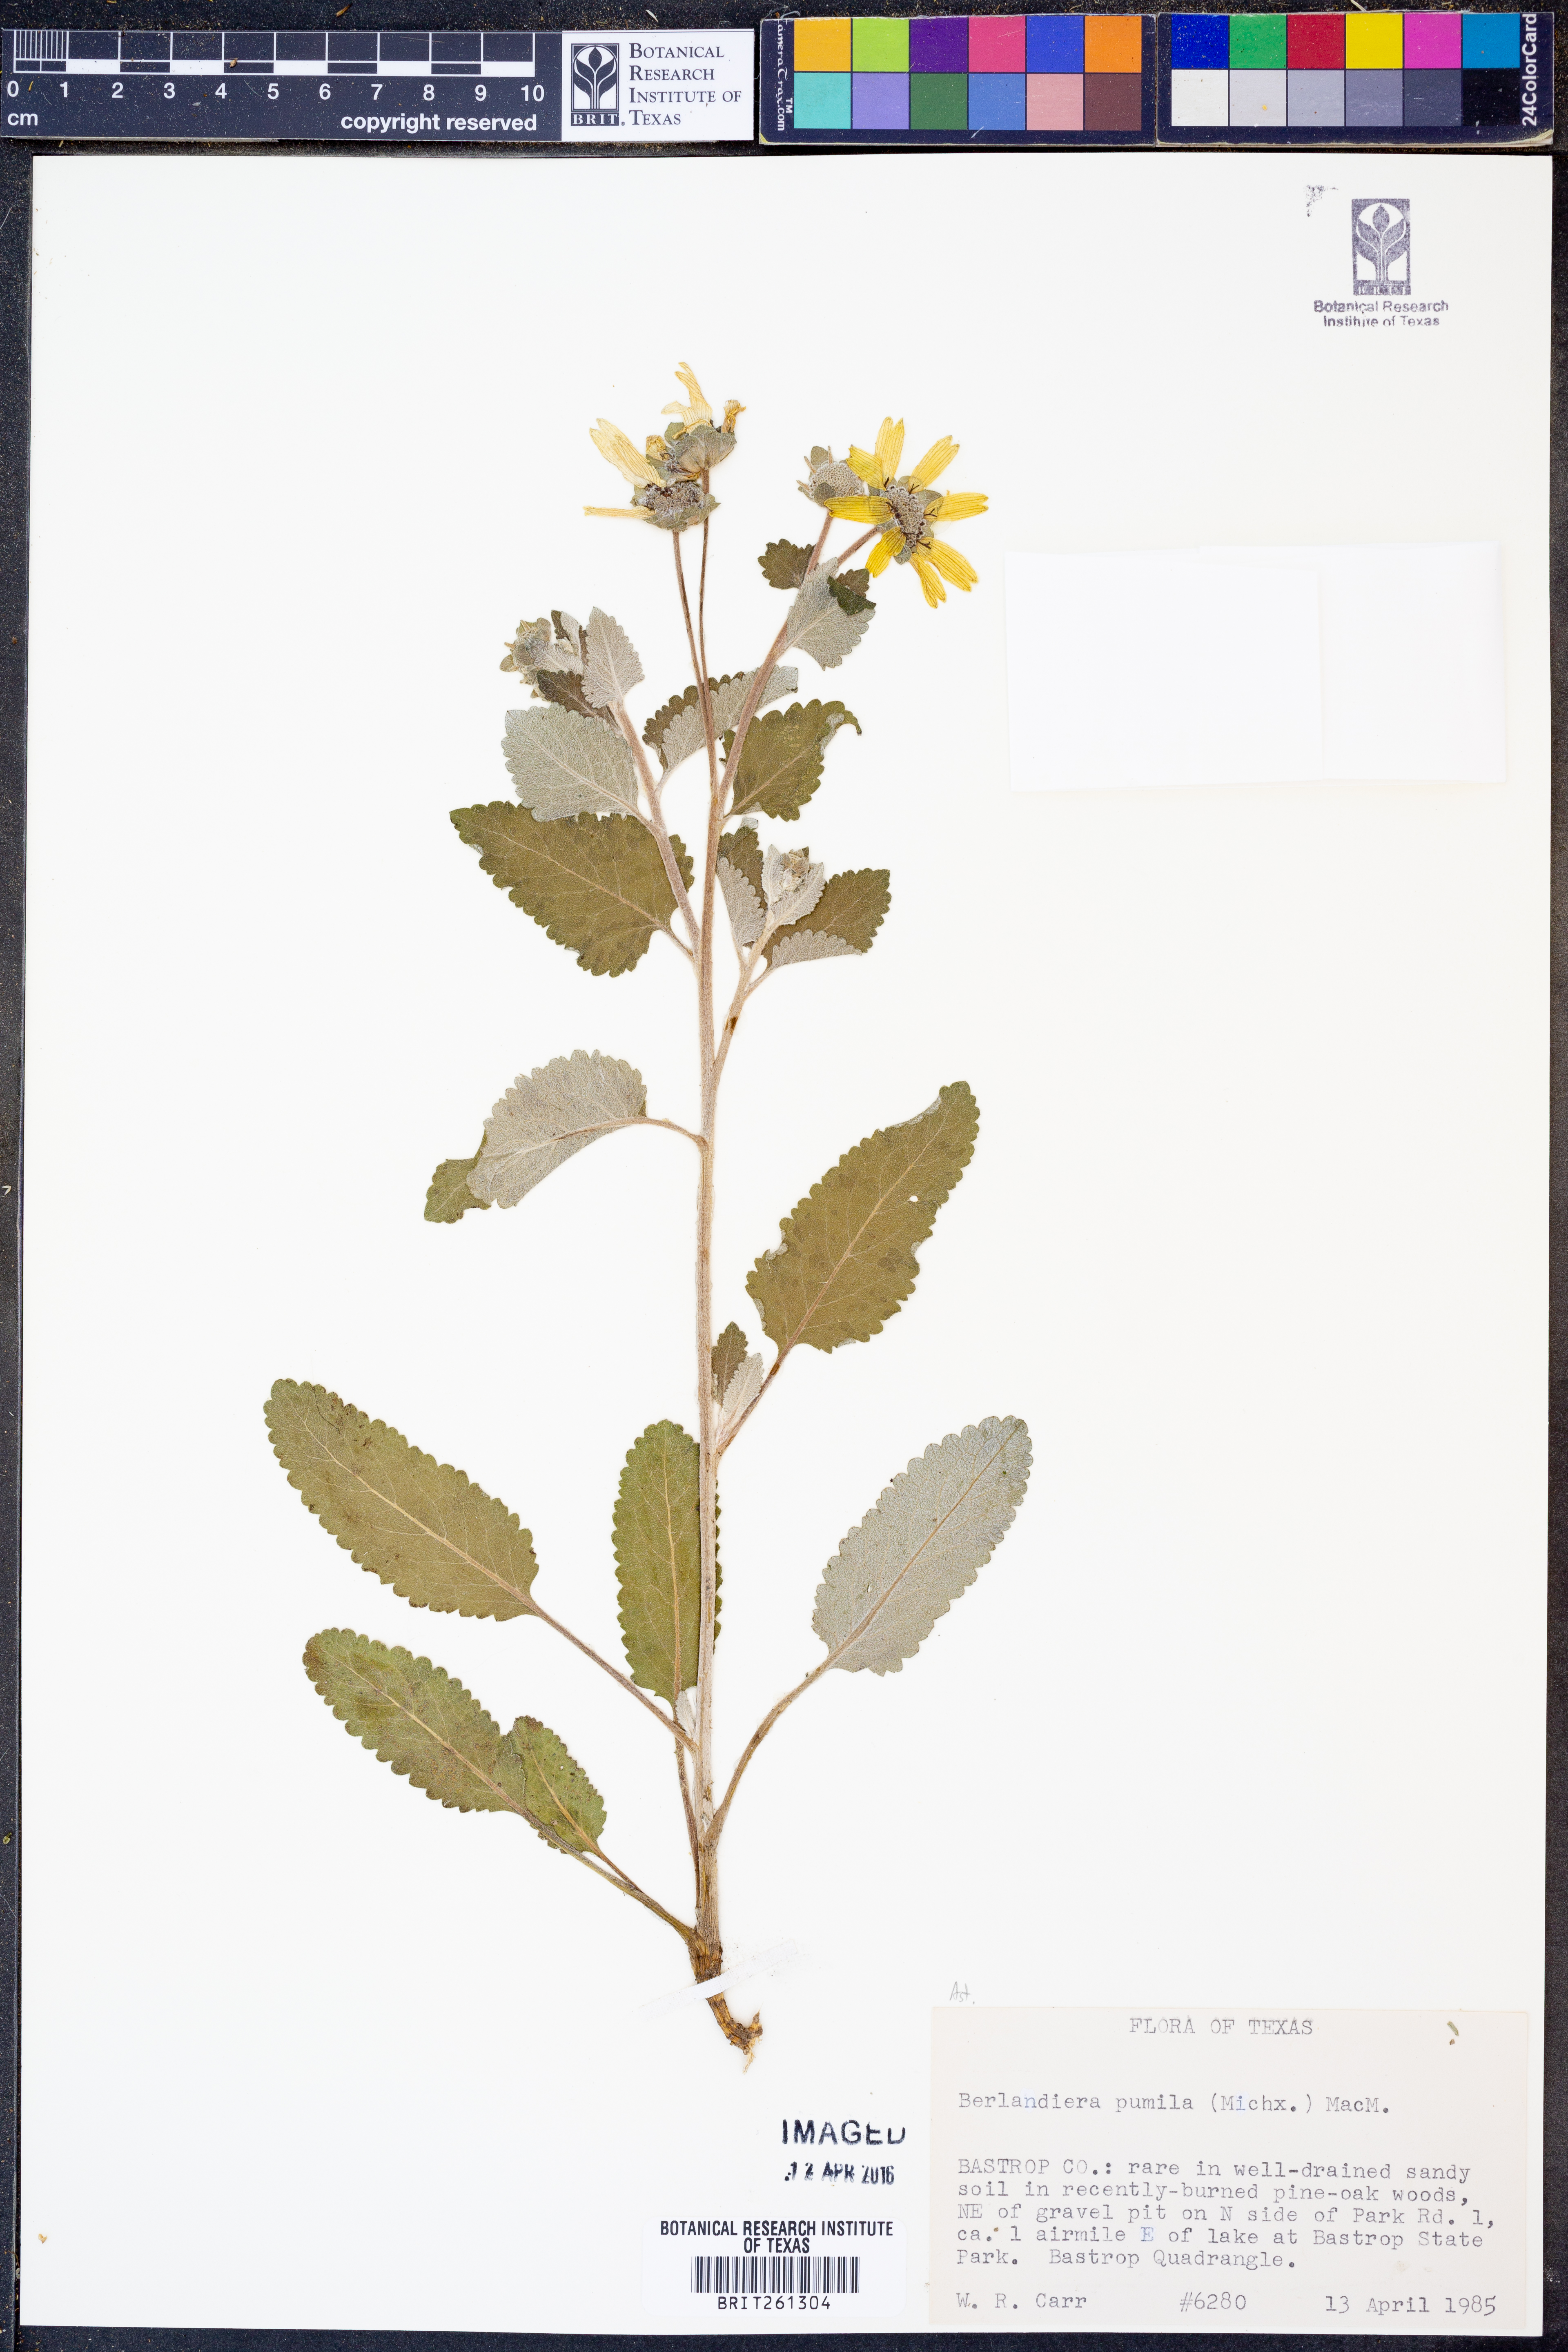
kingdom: Plantae
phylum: Tracheophyta
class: Magnoliopsida
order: Asterales
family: Asteraceae
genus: Berlandiera
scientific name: Berlandiera pumila
